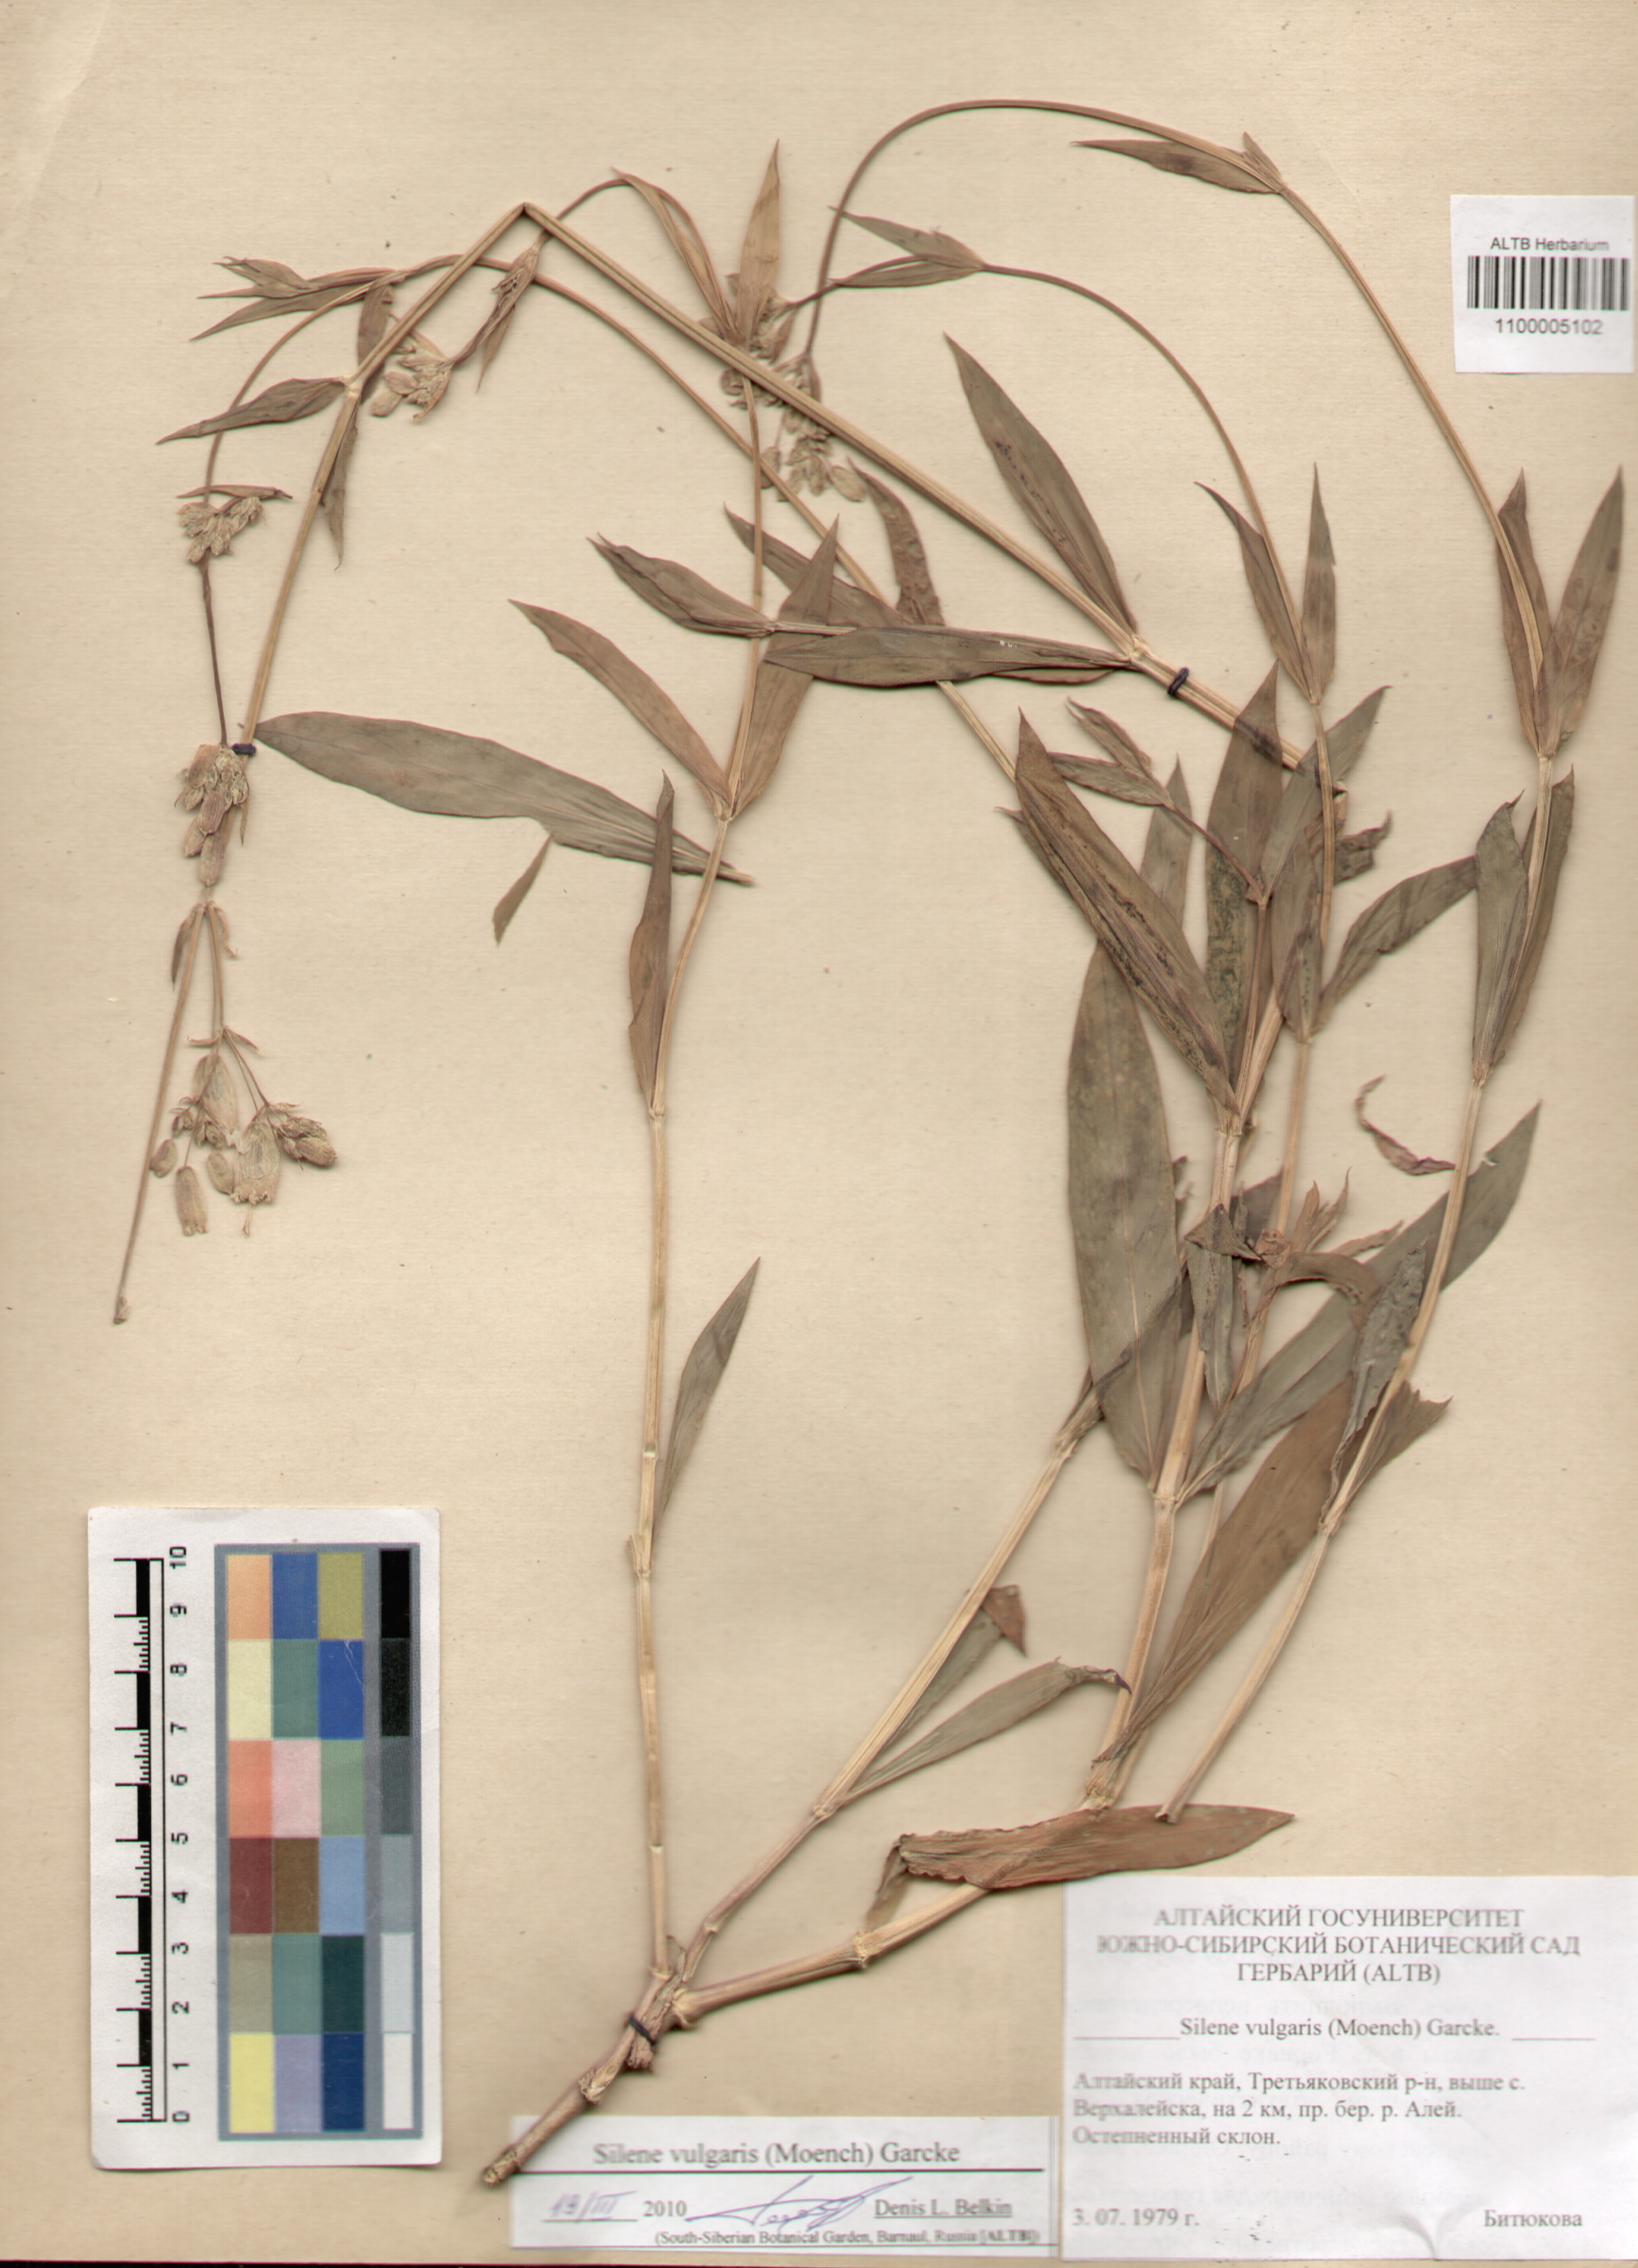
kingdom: Plantae
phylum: Tracheophyta
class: Magnoliopsida
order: Caryophyllales
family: Caryophyllaceae
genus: Silene
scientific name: Silene vulgaris
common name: Bladder campion
